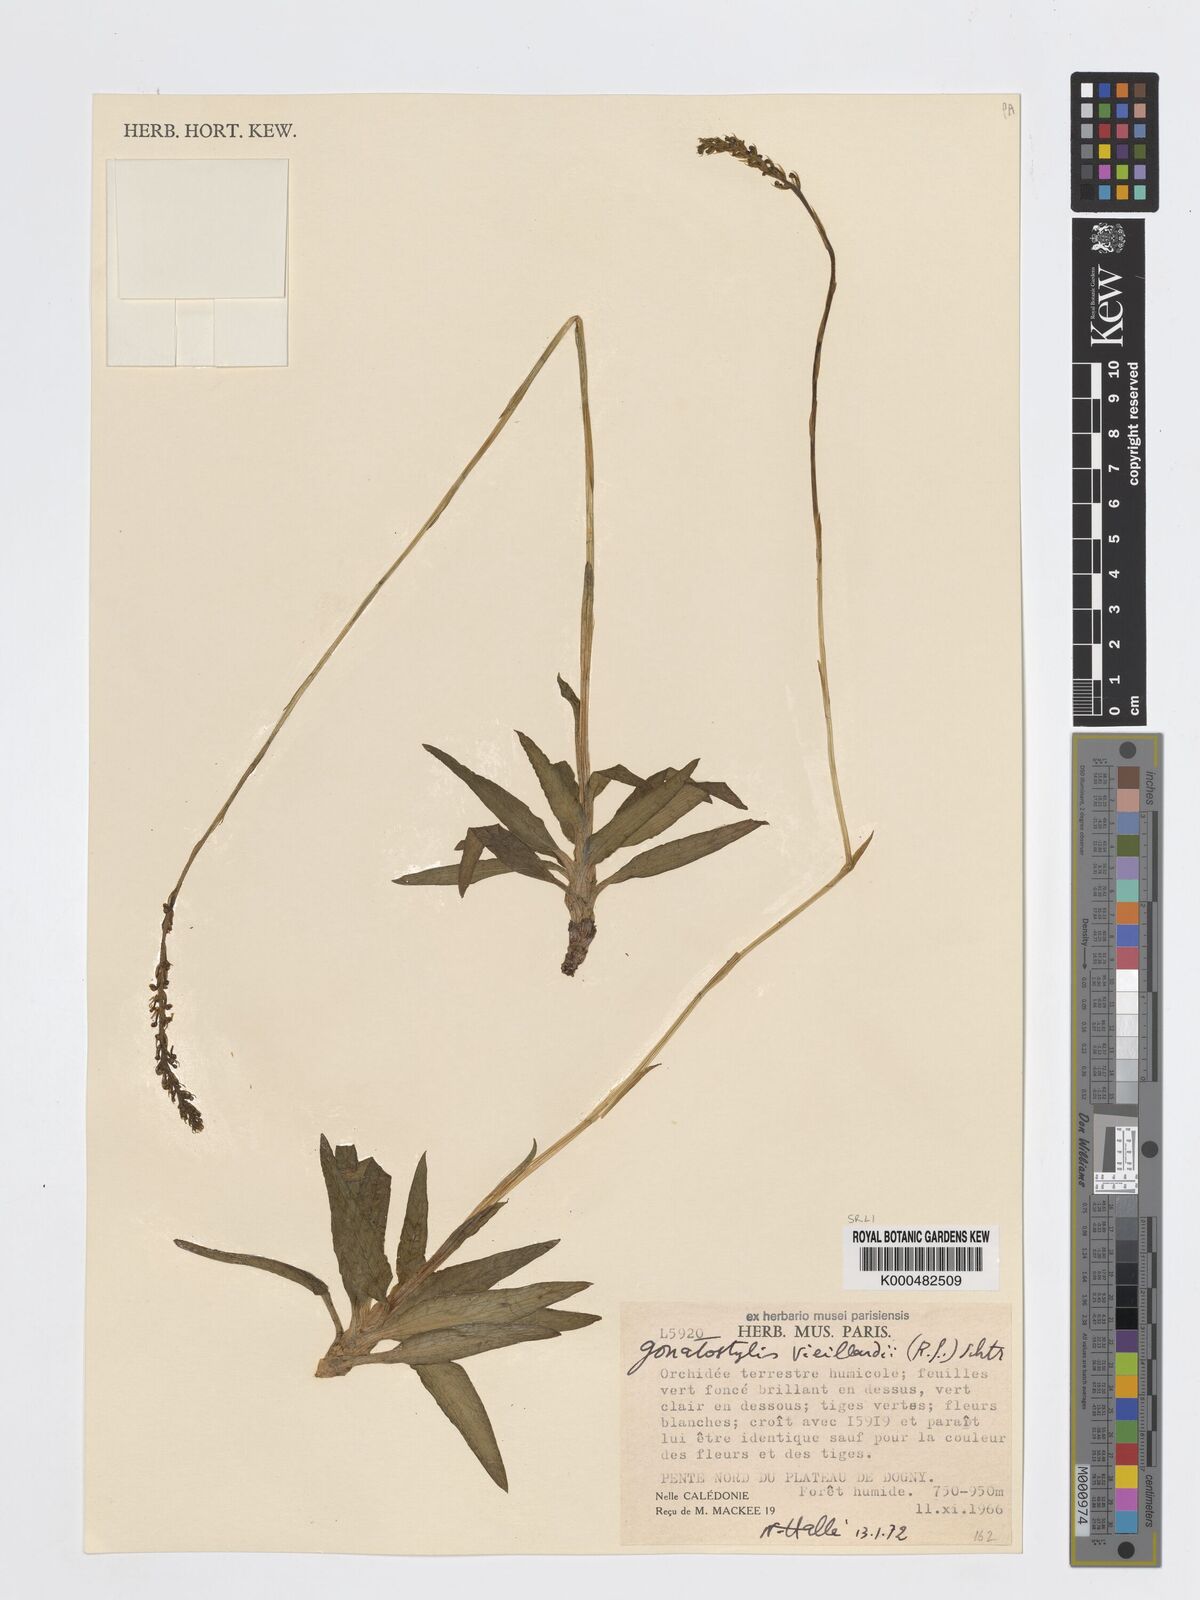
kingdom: Plantae
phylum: Tracheophyta
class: Liliopsida
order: Asparagales
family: Orchidaceae
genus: Gonatostylis
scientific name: Gonatostylis vieillardii
